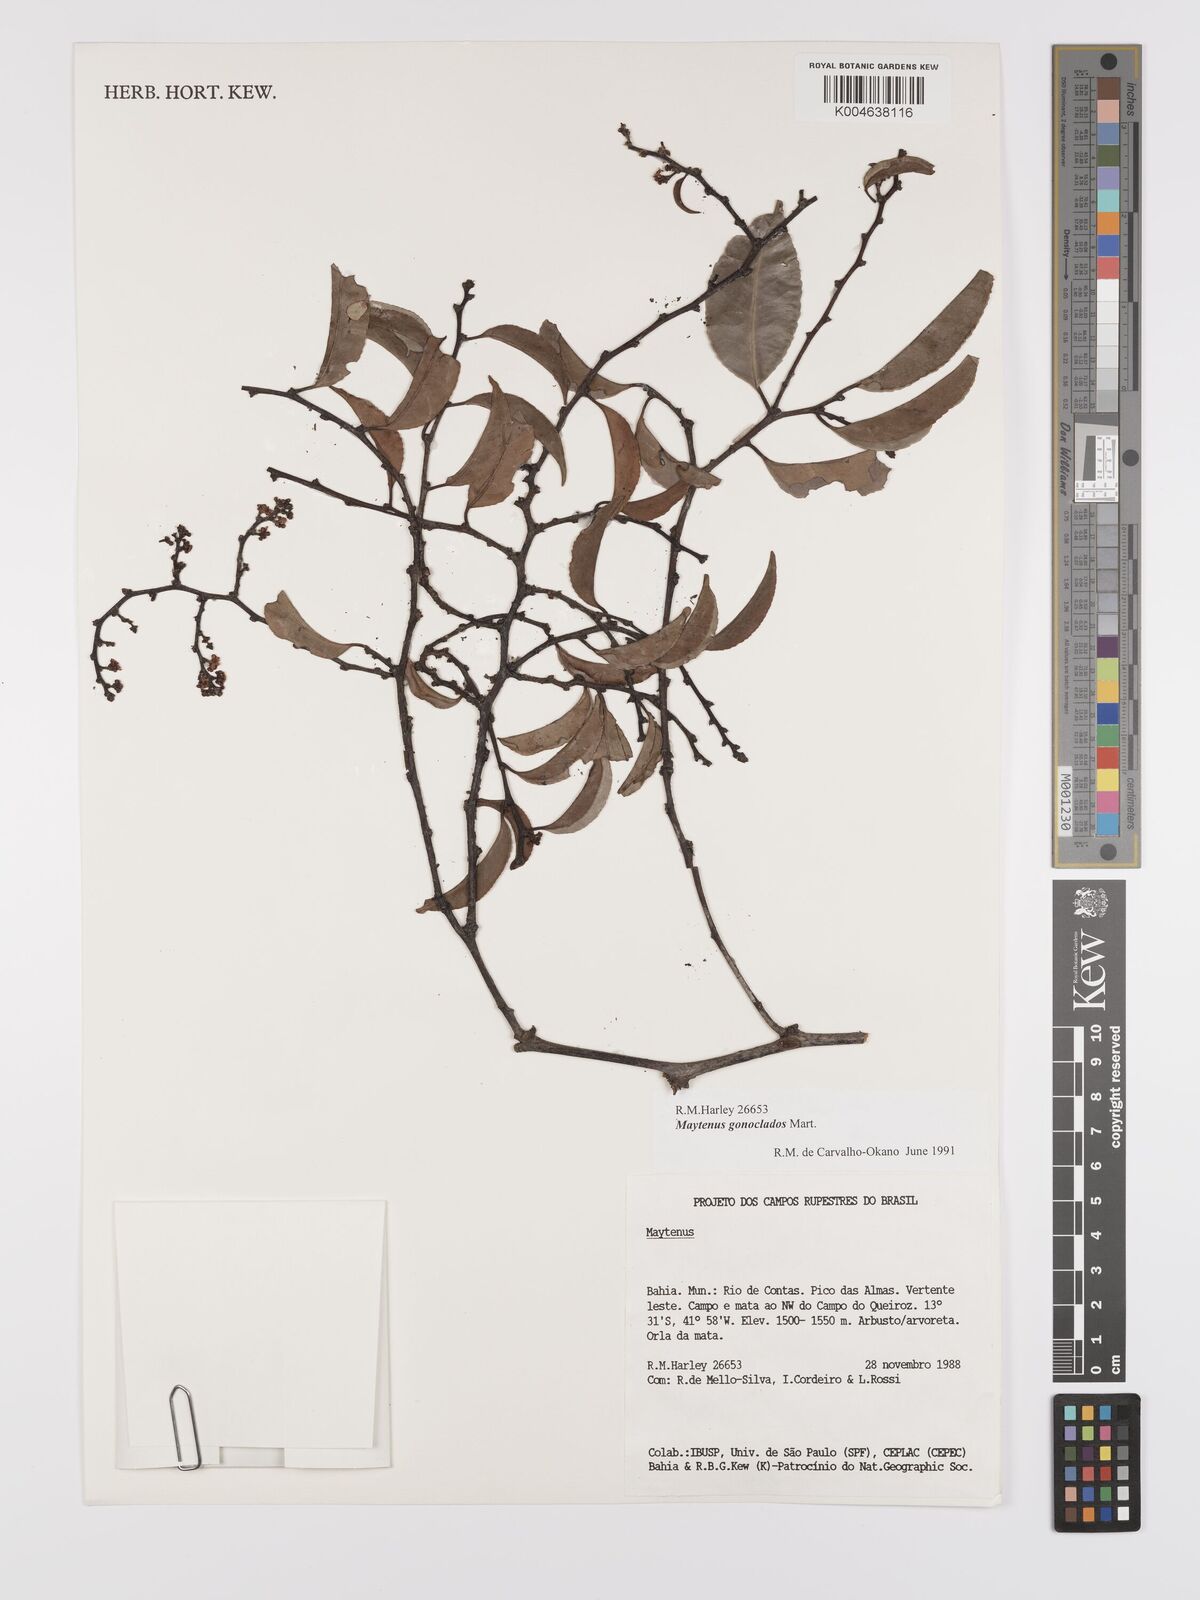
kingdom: Plantae
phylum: Tracheophyta
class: Magnoliopsida
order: Celastrales
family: Celastraceae
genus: Monteverdia
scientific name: Monteverdia gonoclada
